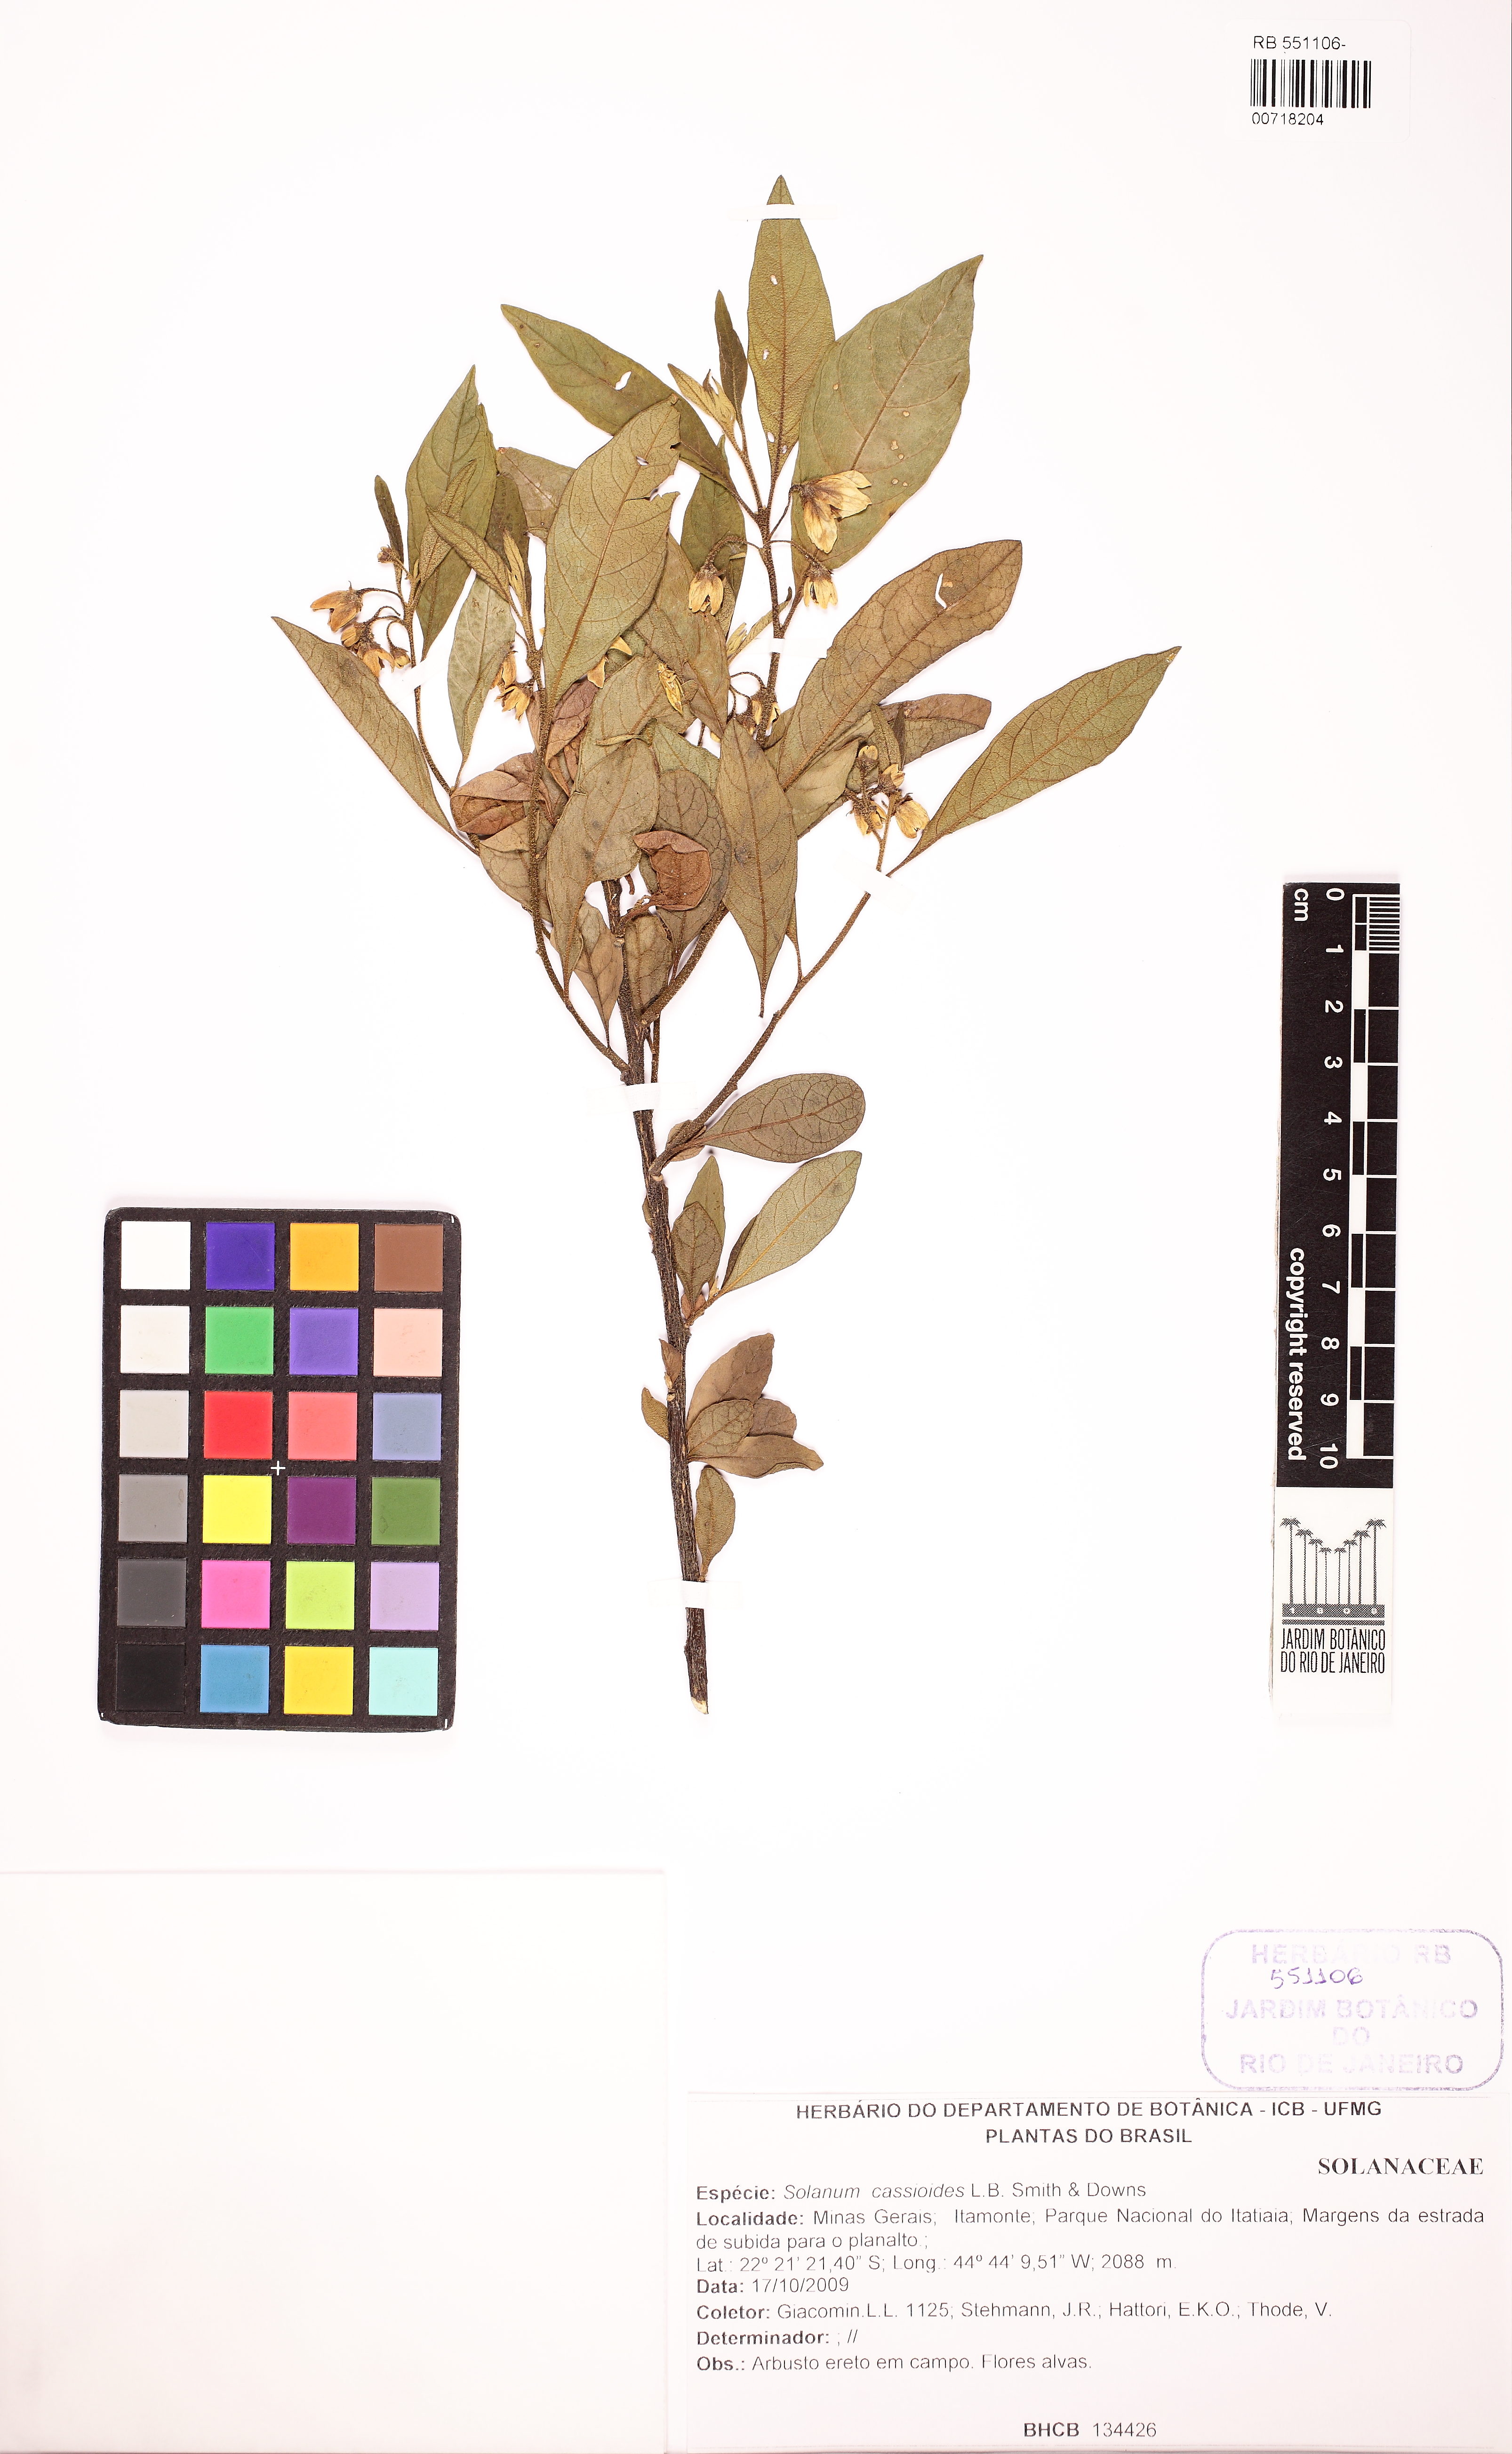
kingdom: Plantae
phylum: Tracheophyta
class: Magnoliopsida
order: Solanales
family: Solanaceae
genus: Solanum
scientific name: Solanum cassioides
